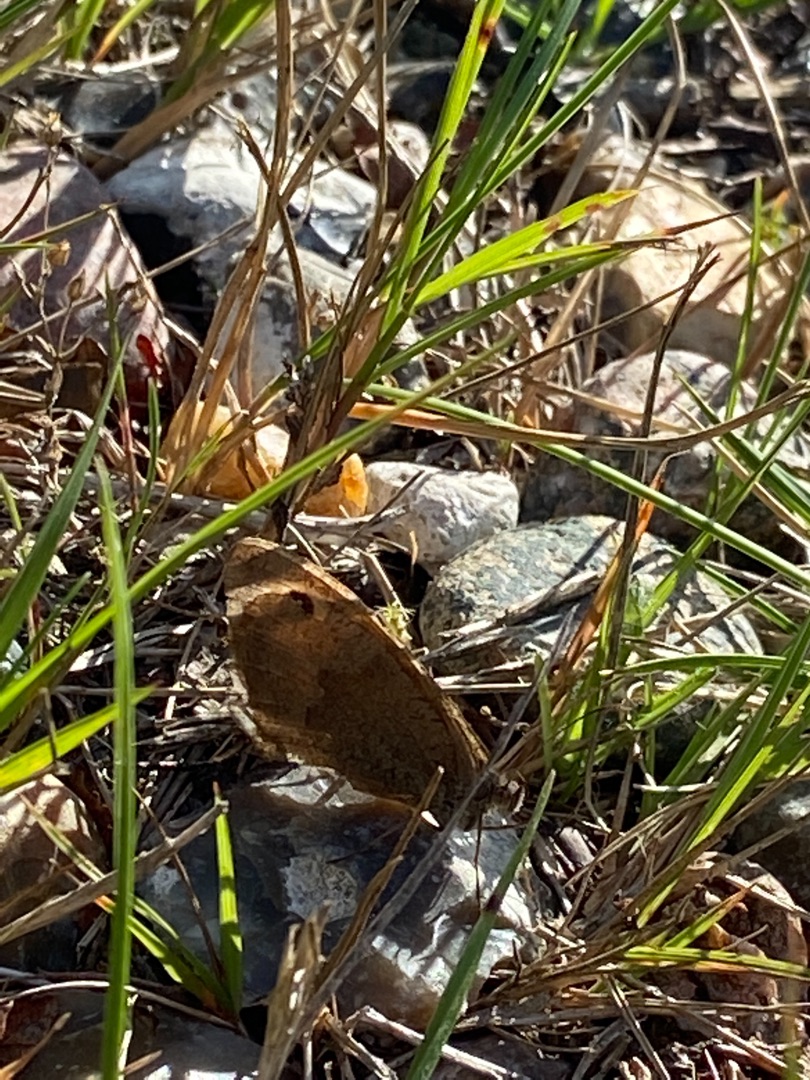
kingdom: Animalia
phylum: Arthropoda
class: Insecta
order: Lepidoptera
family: Nymphalidae
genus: Maniola
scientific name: Maniola jurtina
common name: Græsrandøje
